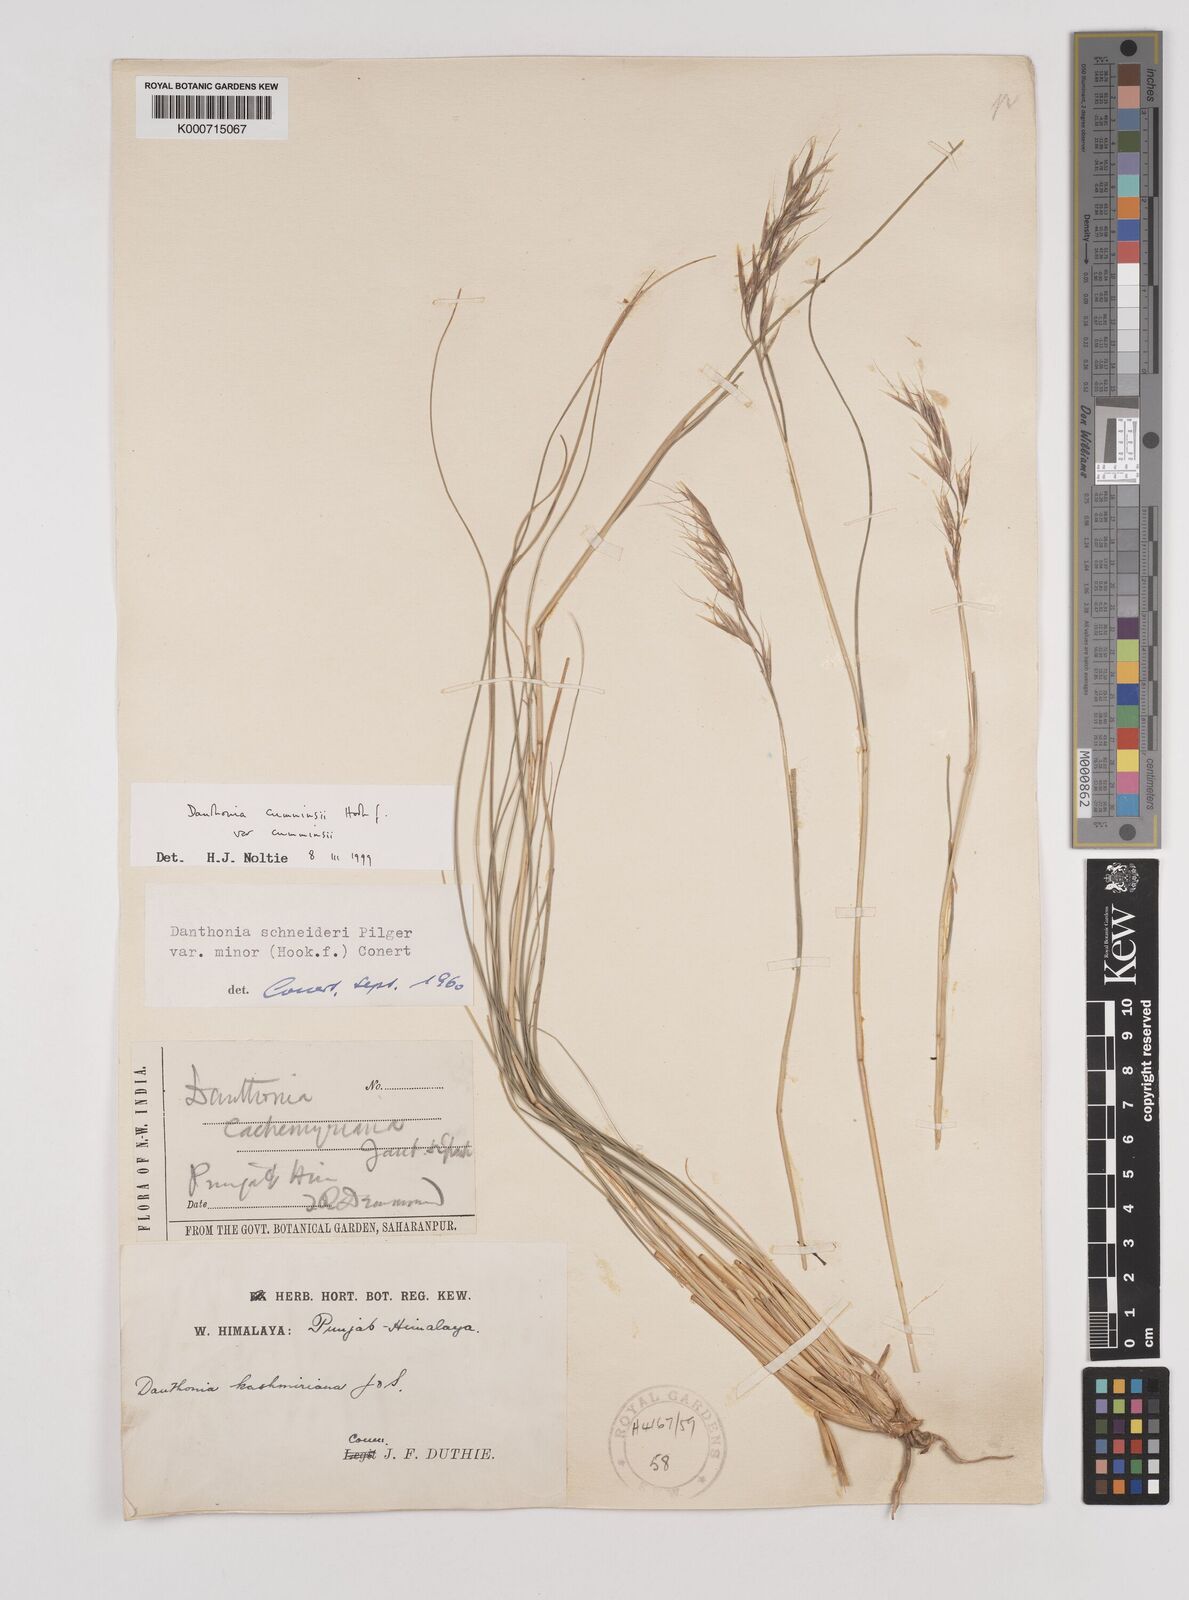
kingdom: Plantae
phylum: Tracheophyta
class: Liliopsida
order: Poales
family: Poaceae
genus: Rytidosperma
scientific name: Rytidosperma
